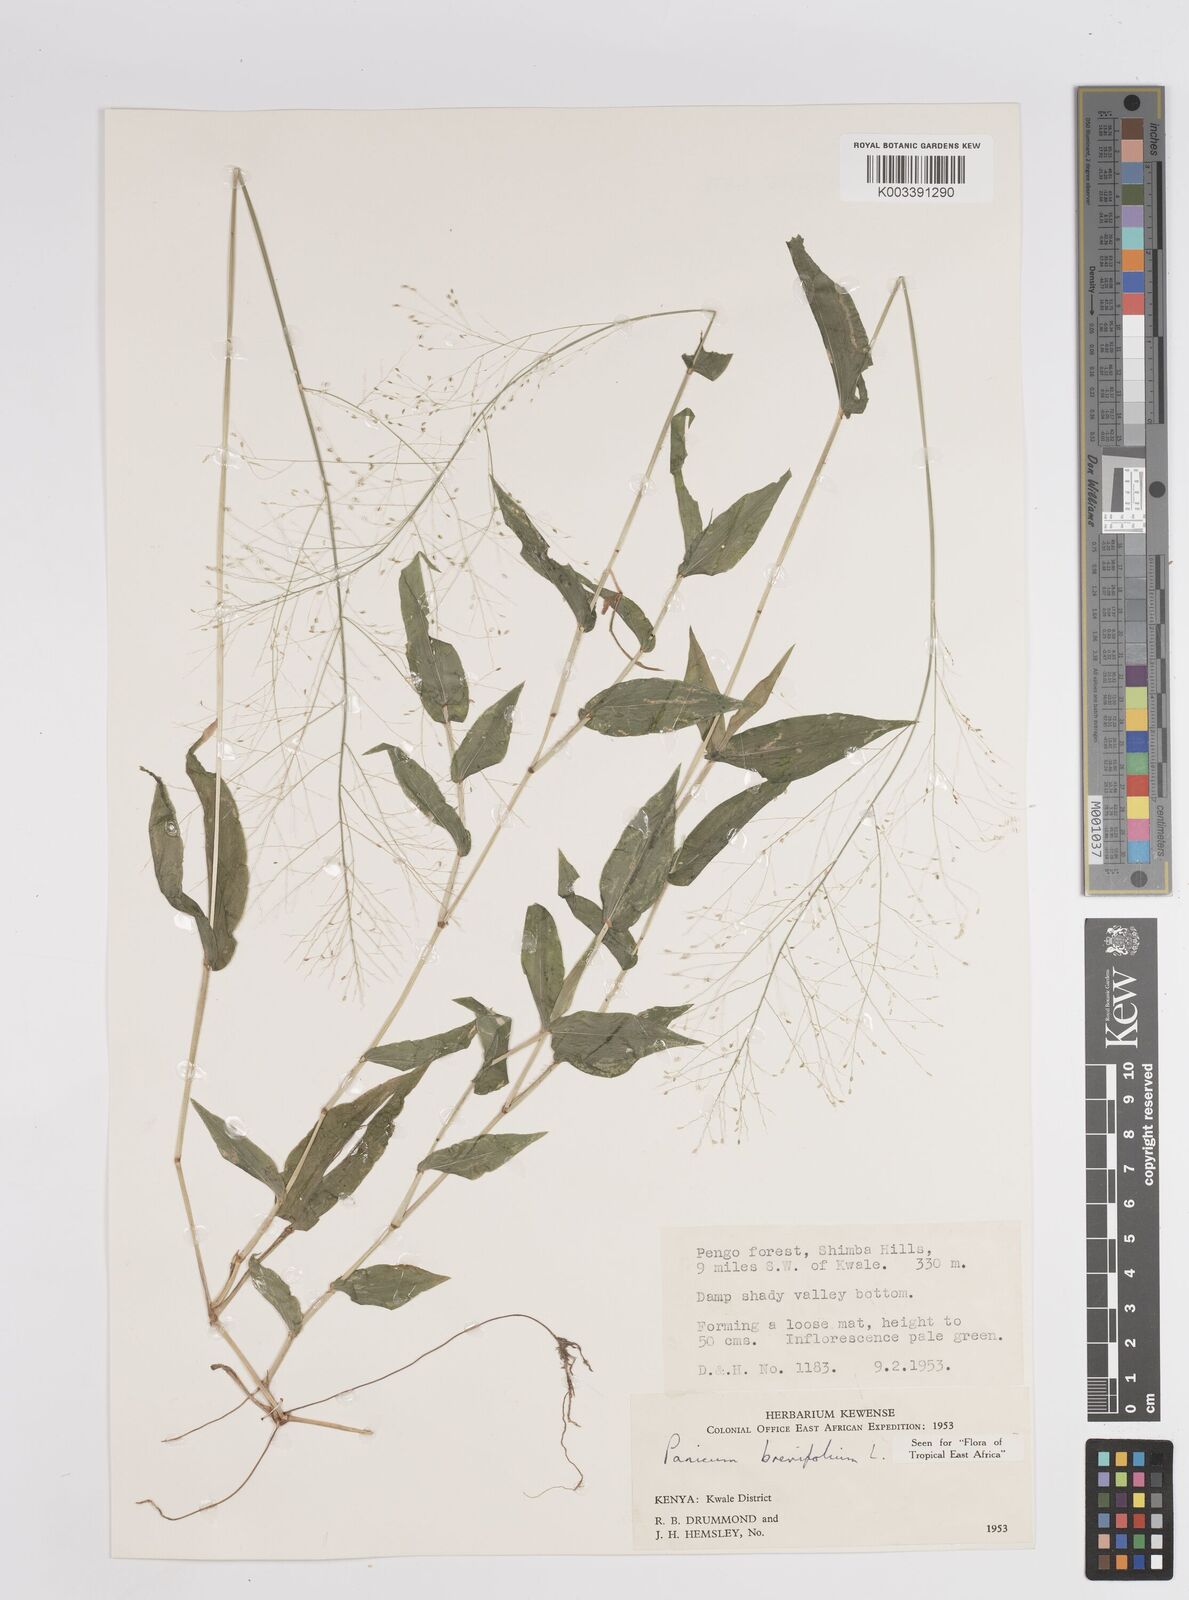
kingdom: Plantae
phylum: Tracheophyta
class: Liliopsida
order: Poales
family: Poaceae
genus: Panicum
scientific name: Panicum brevifolium
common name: Shortleaf panic grass
